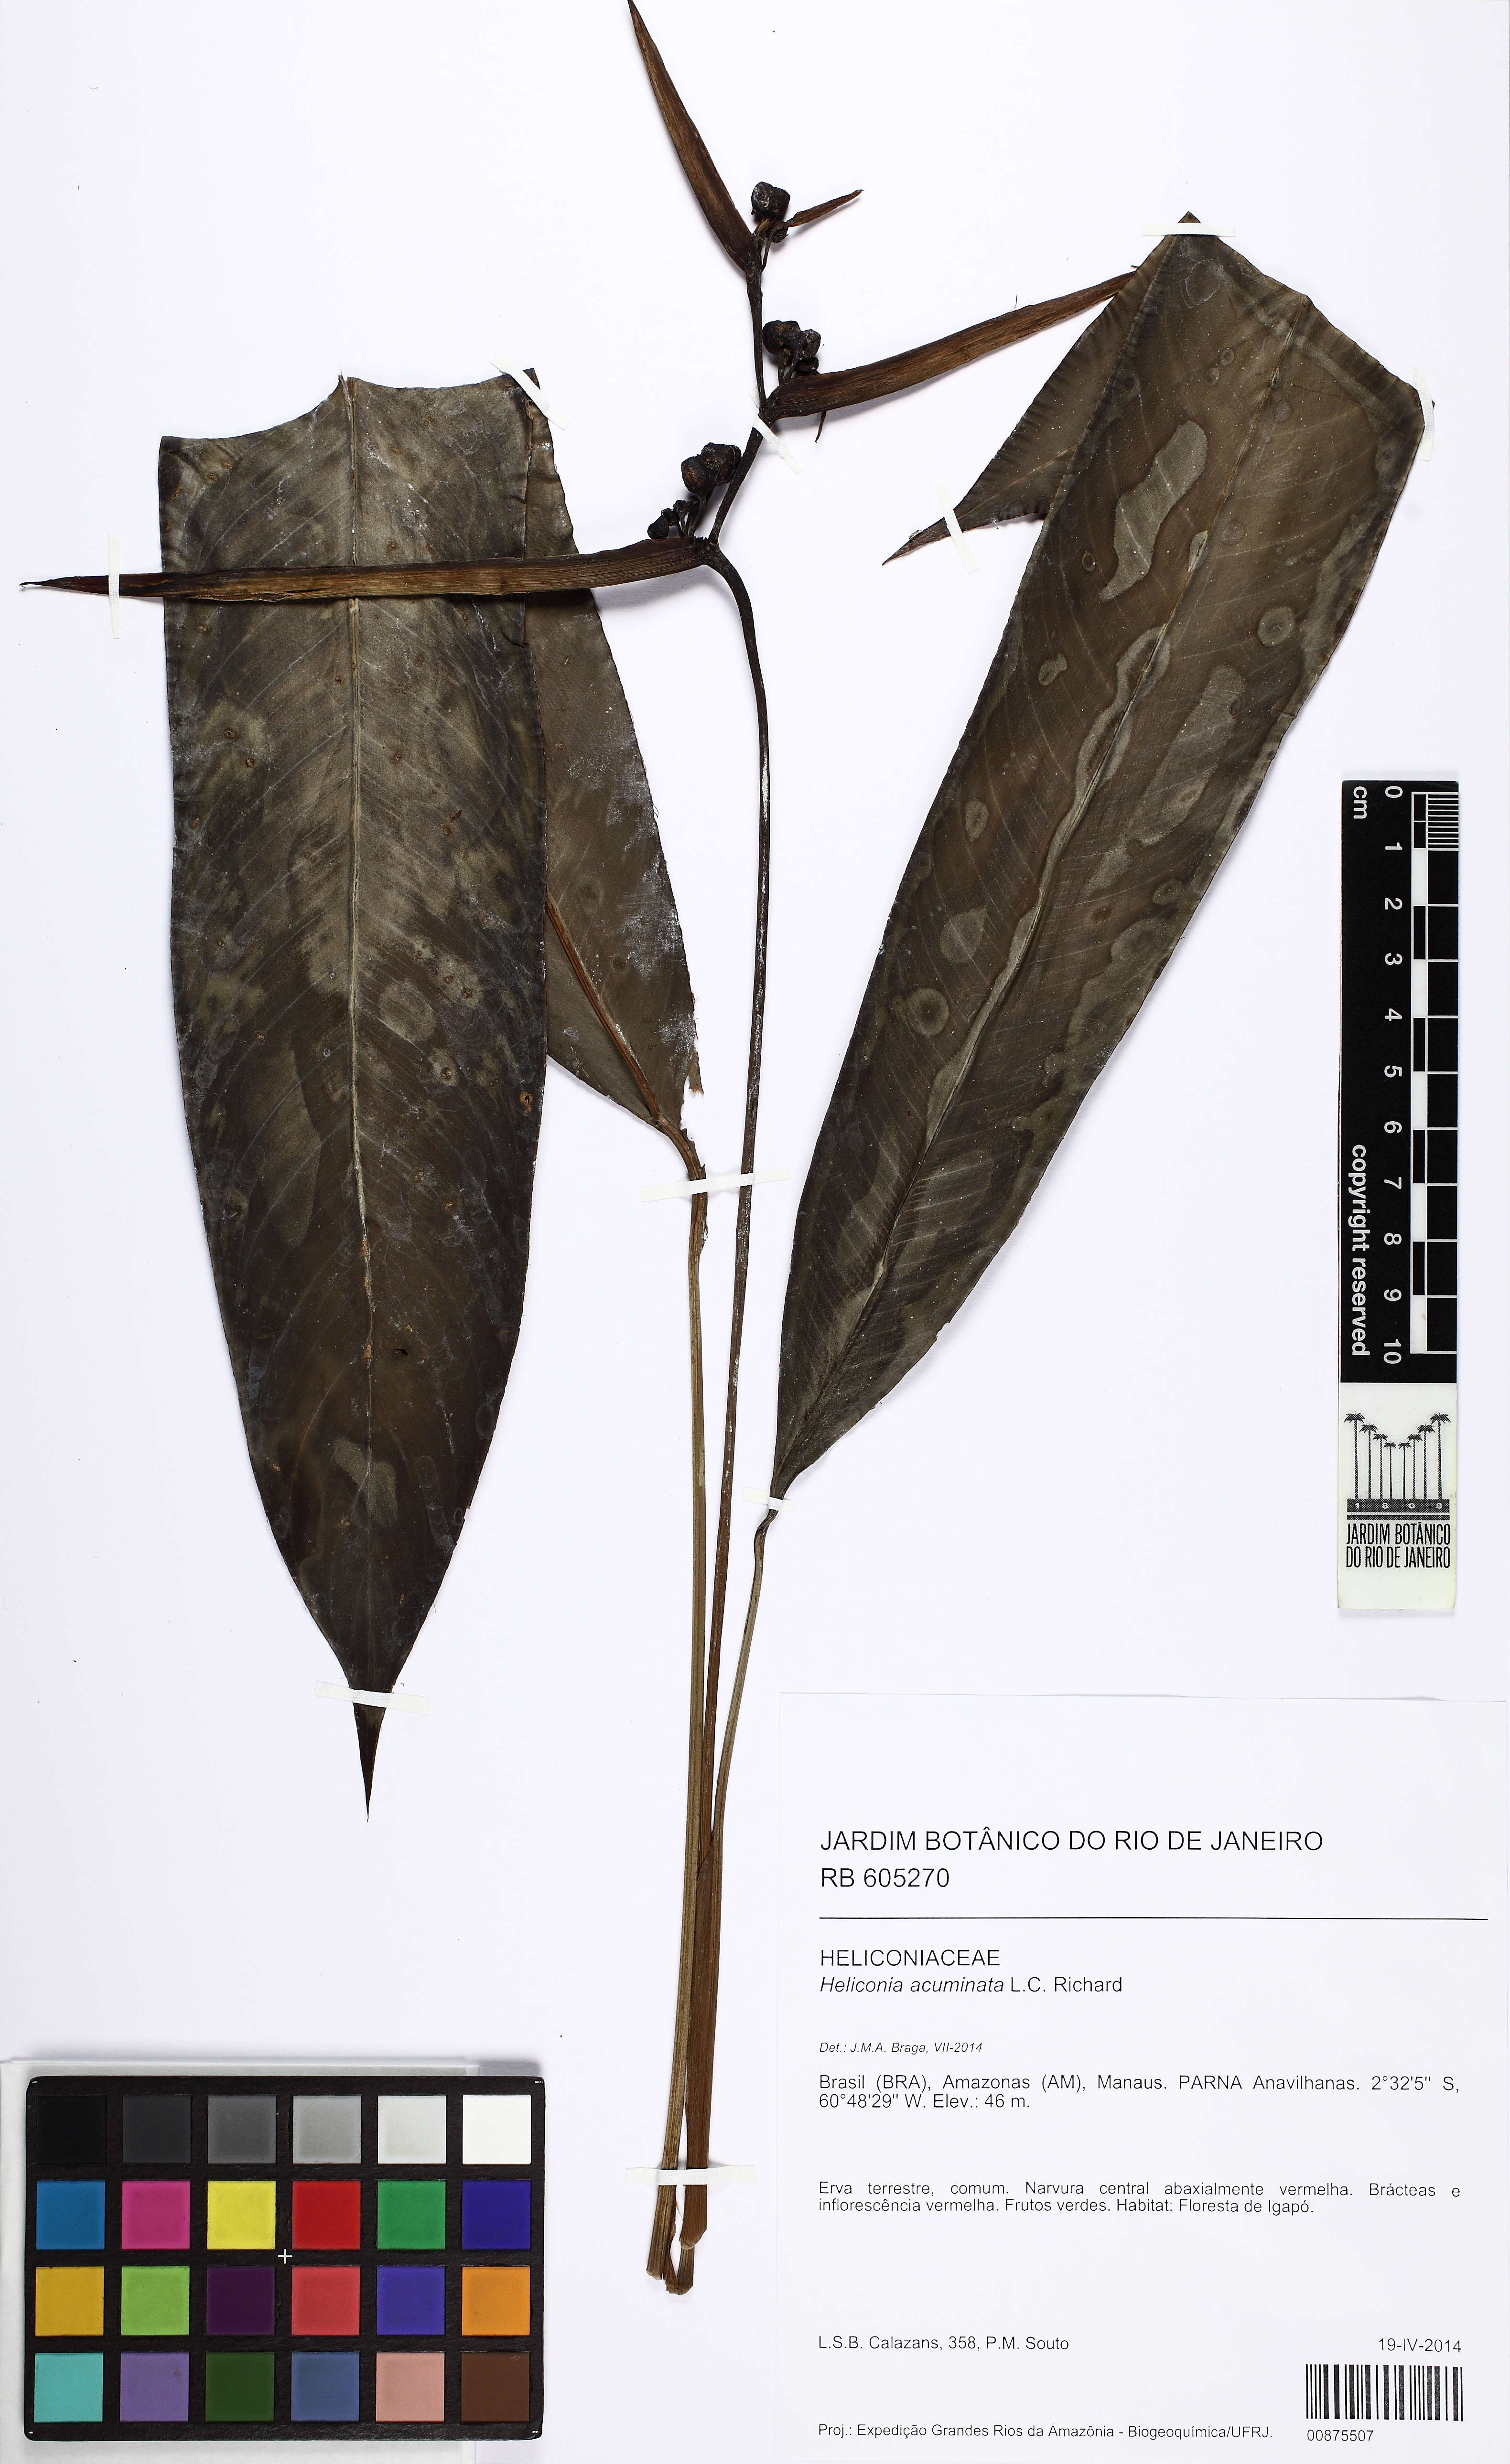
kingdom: Plantae
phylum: Tracheophyta
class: Liliopsida
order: Zingiberales
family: Heliconiaceae
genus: Heliconia
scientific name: Heliconia acuminata
